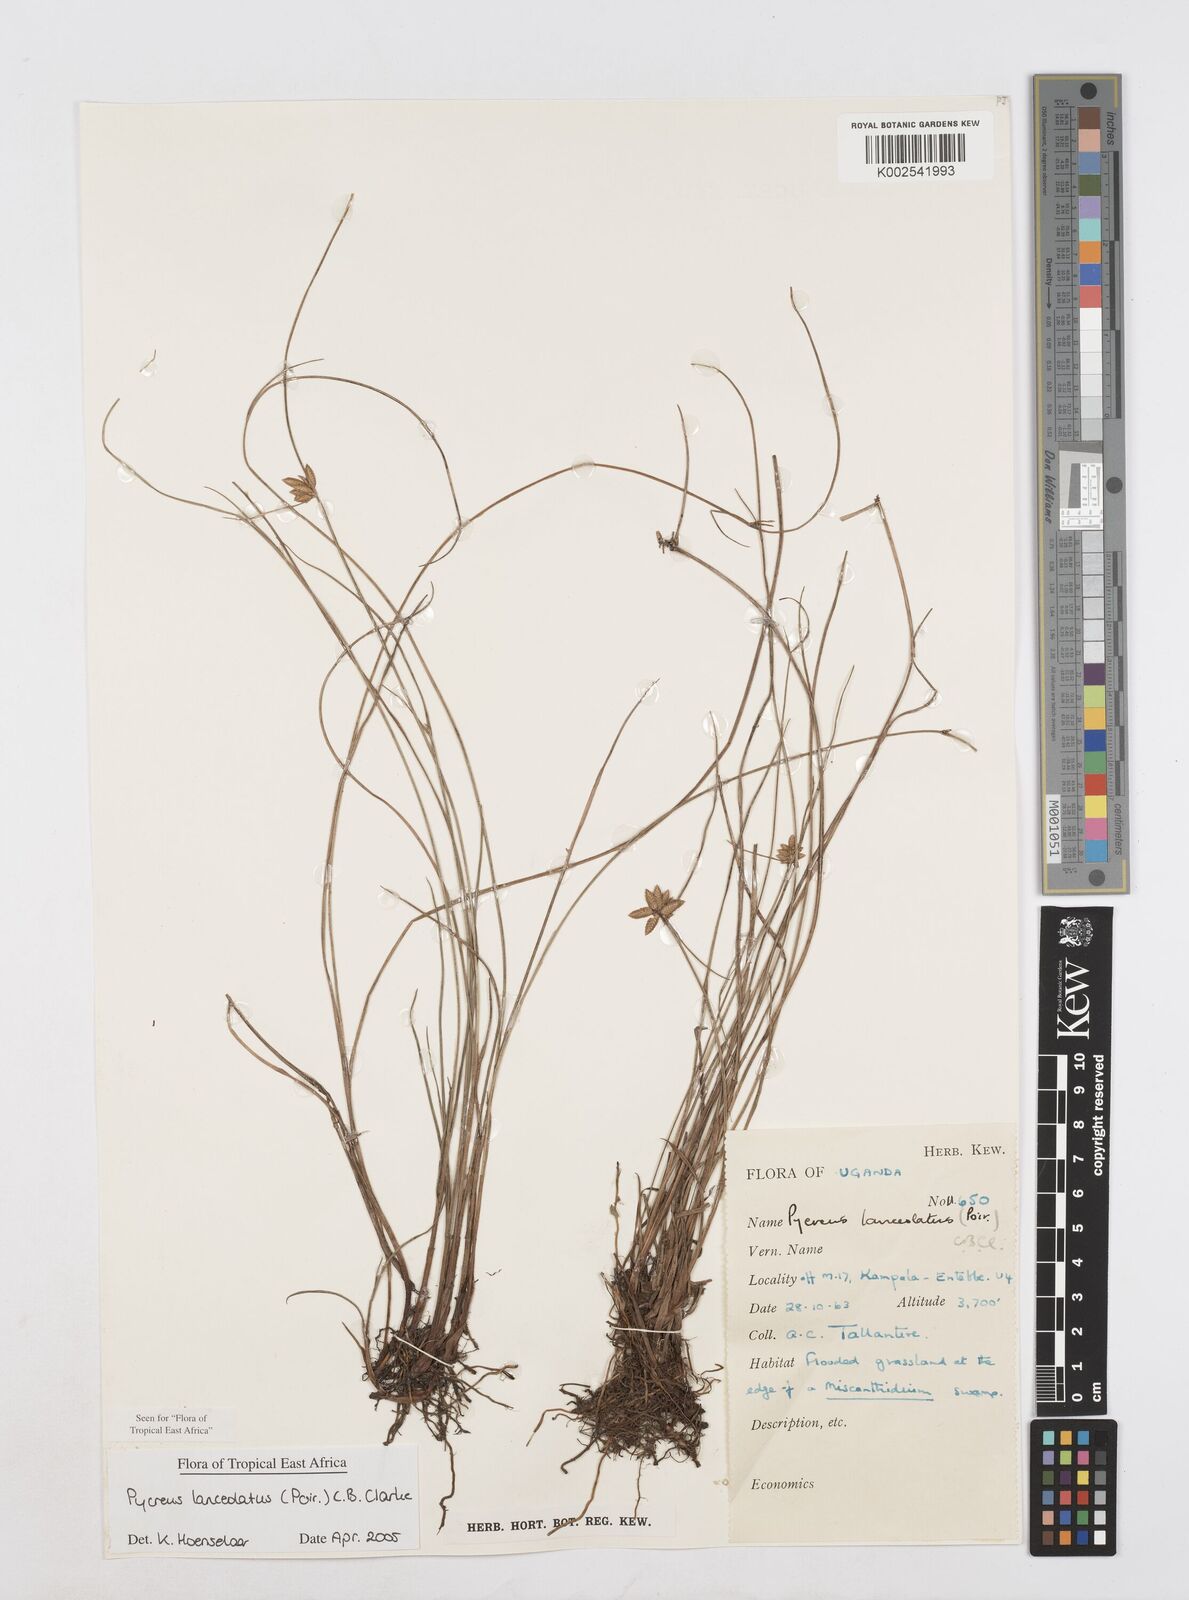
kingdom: Plantae
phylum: Tracheophyta
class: Liliopsida
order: Poales
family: Cyperaceae
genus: Cyperus
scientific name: Cyperus lanceolatus
